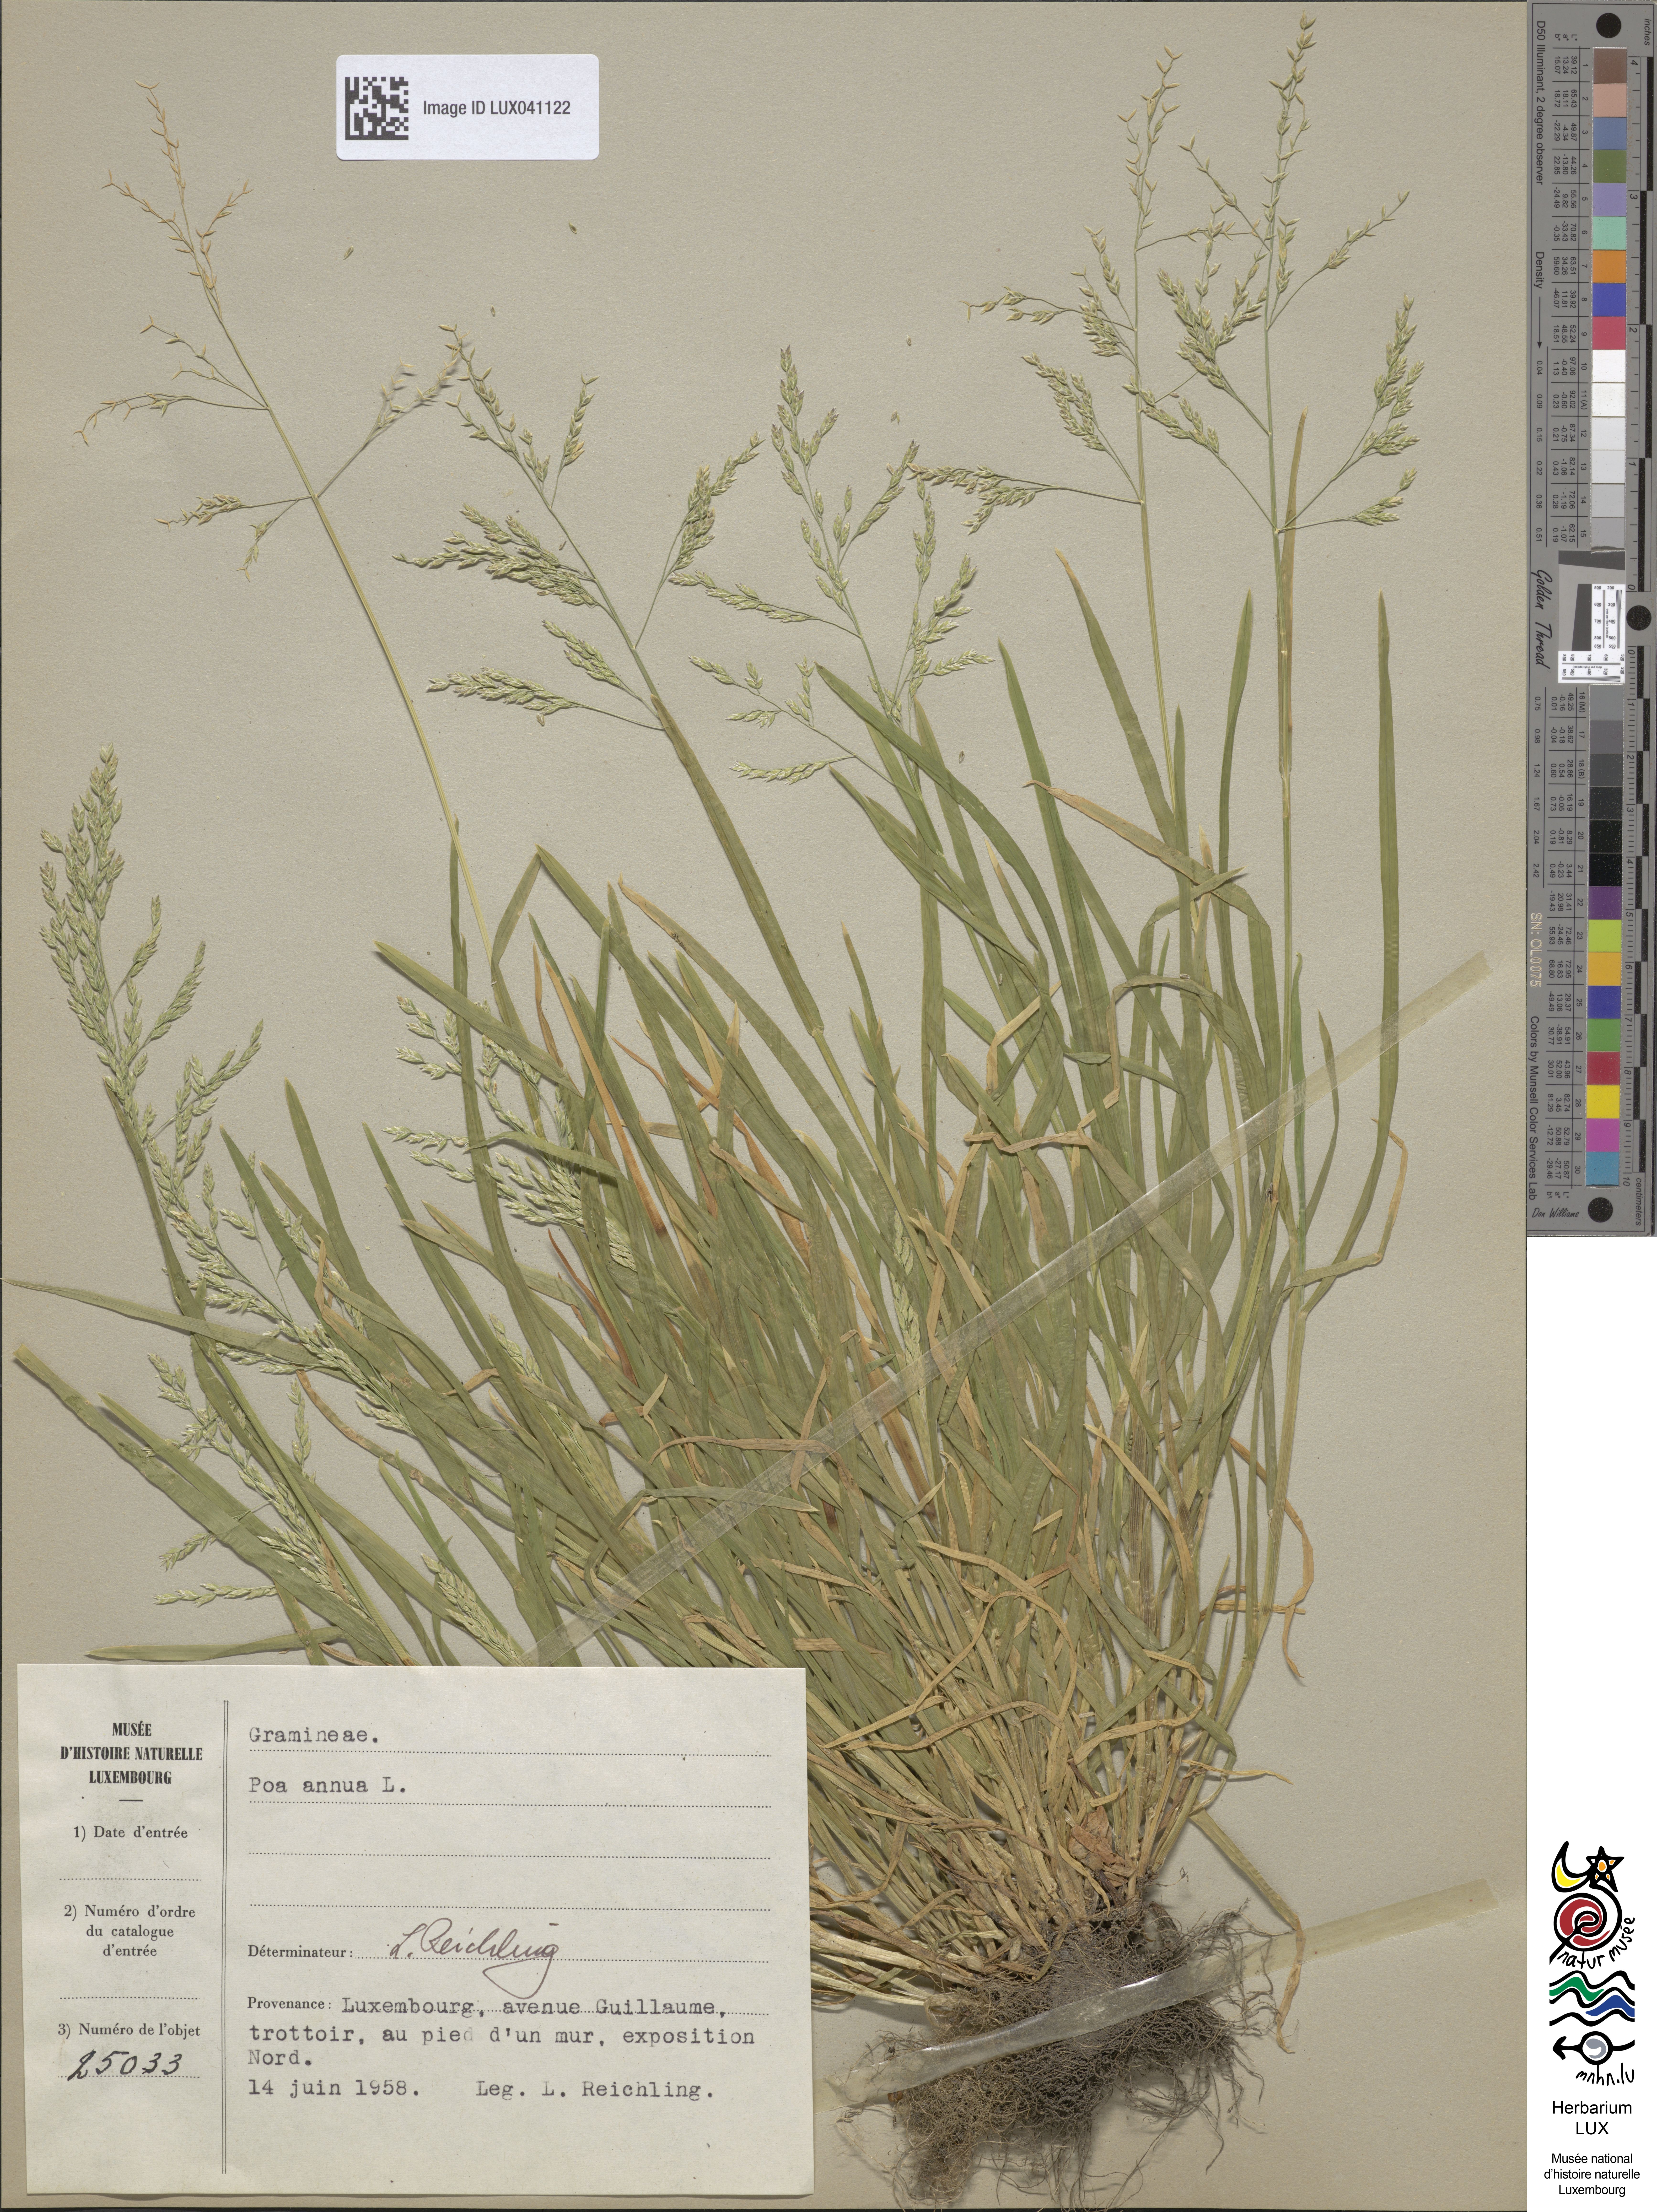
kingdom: Plantae
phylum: Tracheophyta
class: Liliopsida
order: Poales
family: Poaceae
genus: Poa
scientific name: Poa annua
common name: Annual bluegrass
